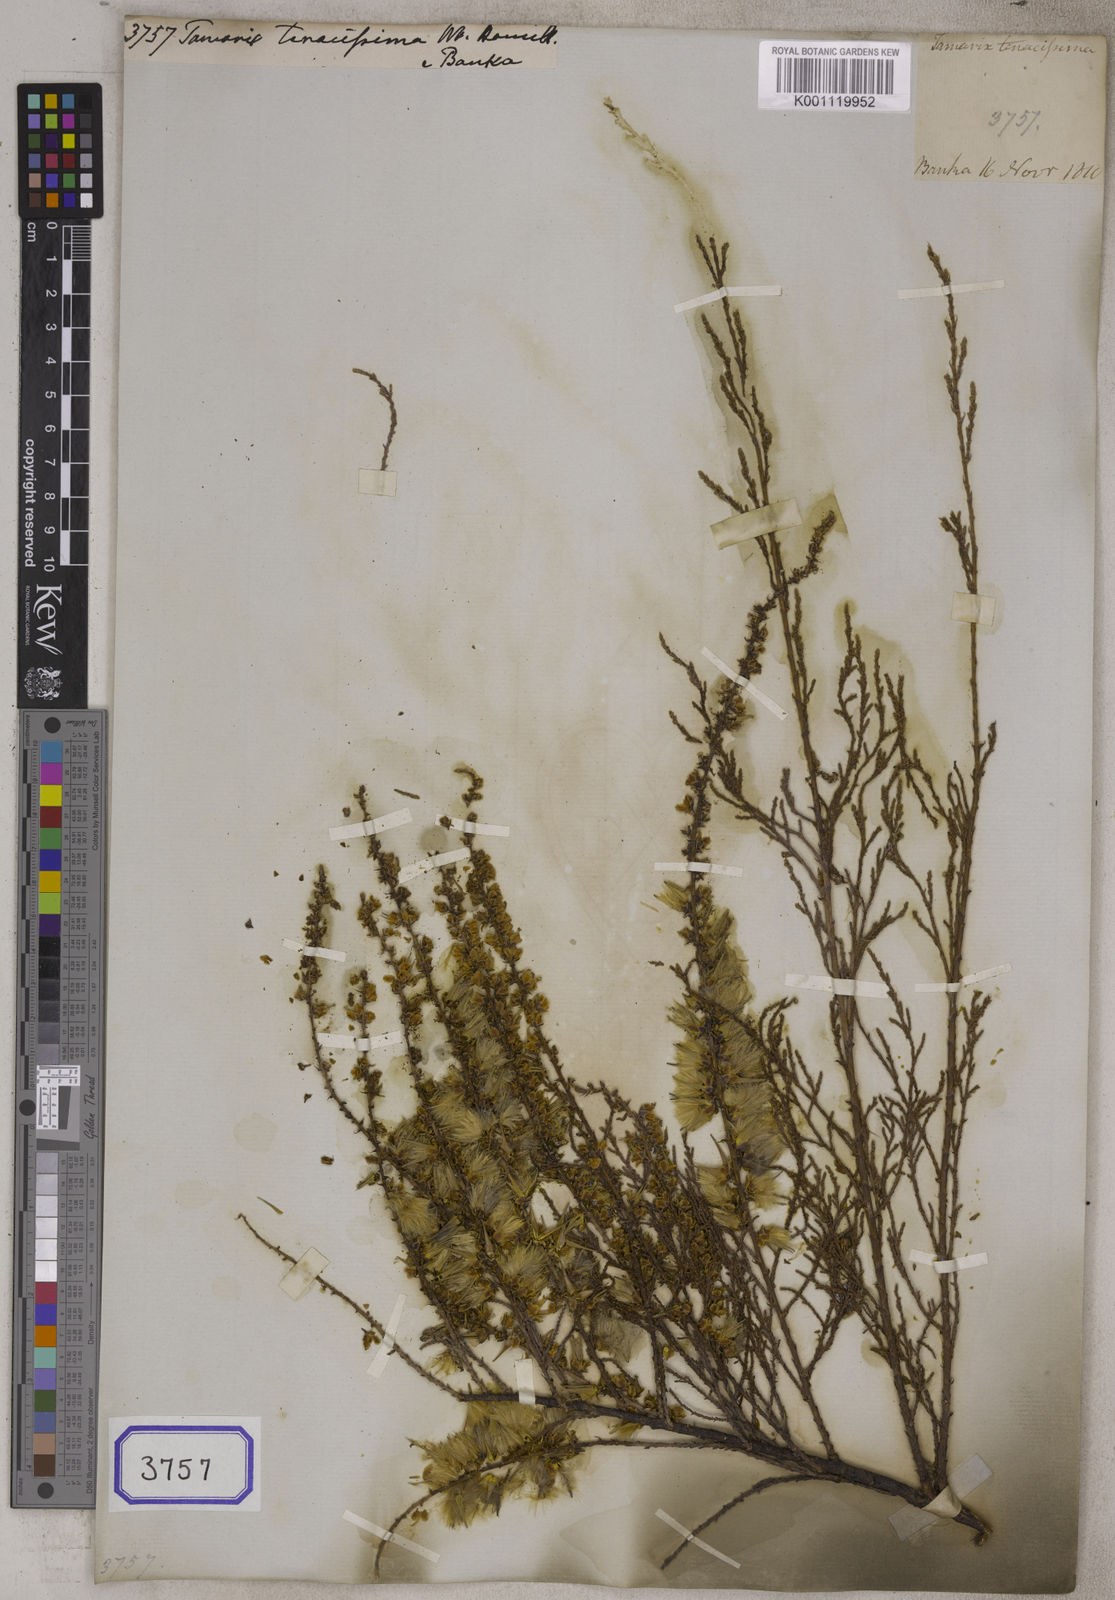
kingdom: Plantae
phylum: Tracheophyta
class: Magnoliopsida
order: Caryophyllales
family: Tamaricaceae
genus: Tamarix
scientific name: Tamarix ericoides
